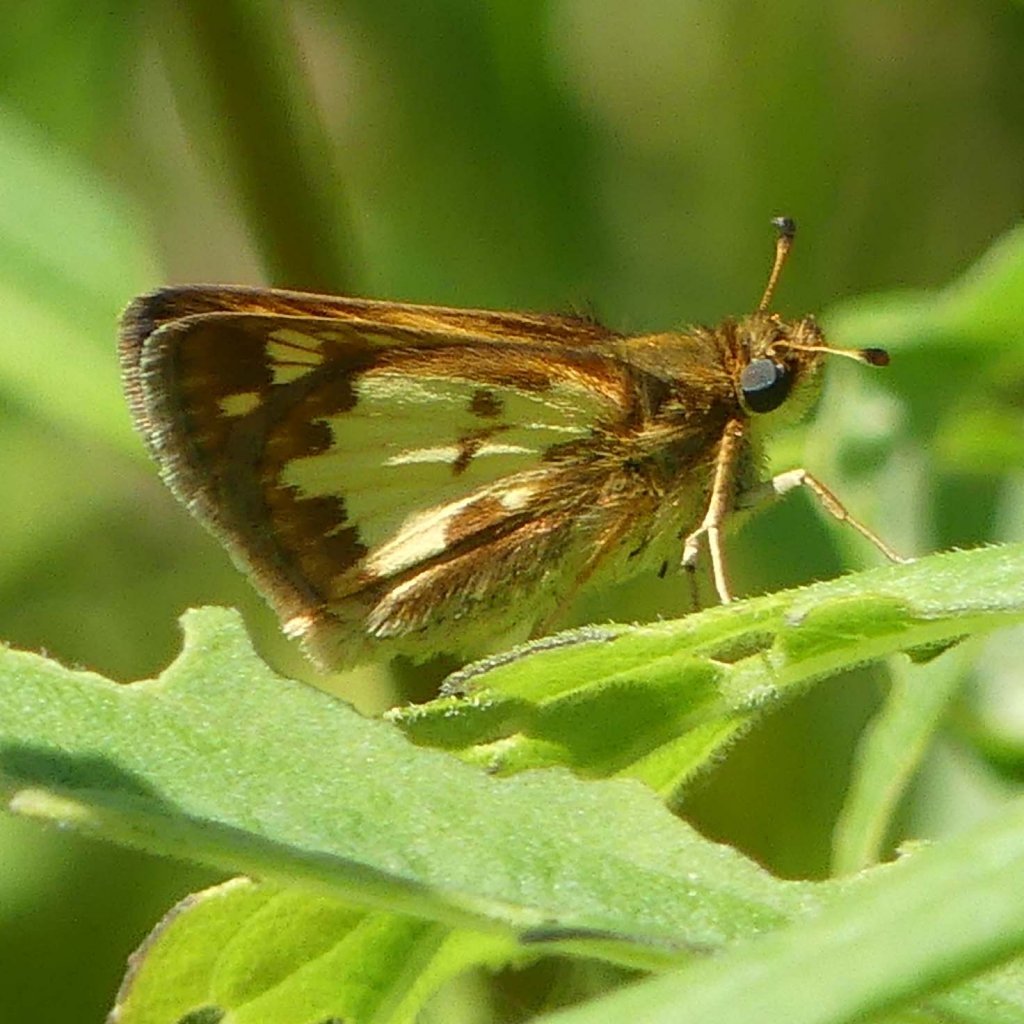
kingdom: Animalia
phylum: Arthropoda
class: Insecta
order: Lepidoptera
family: Hesperiidae
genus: Polites
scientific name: Polites coras
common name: Peck's Skipper
